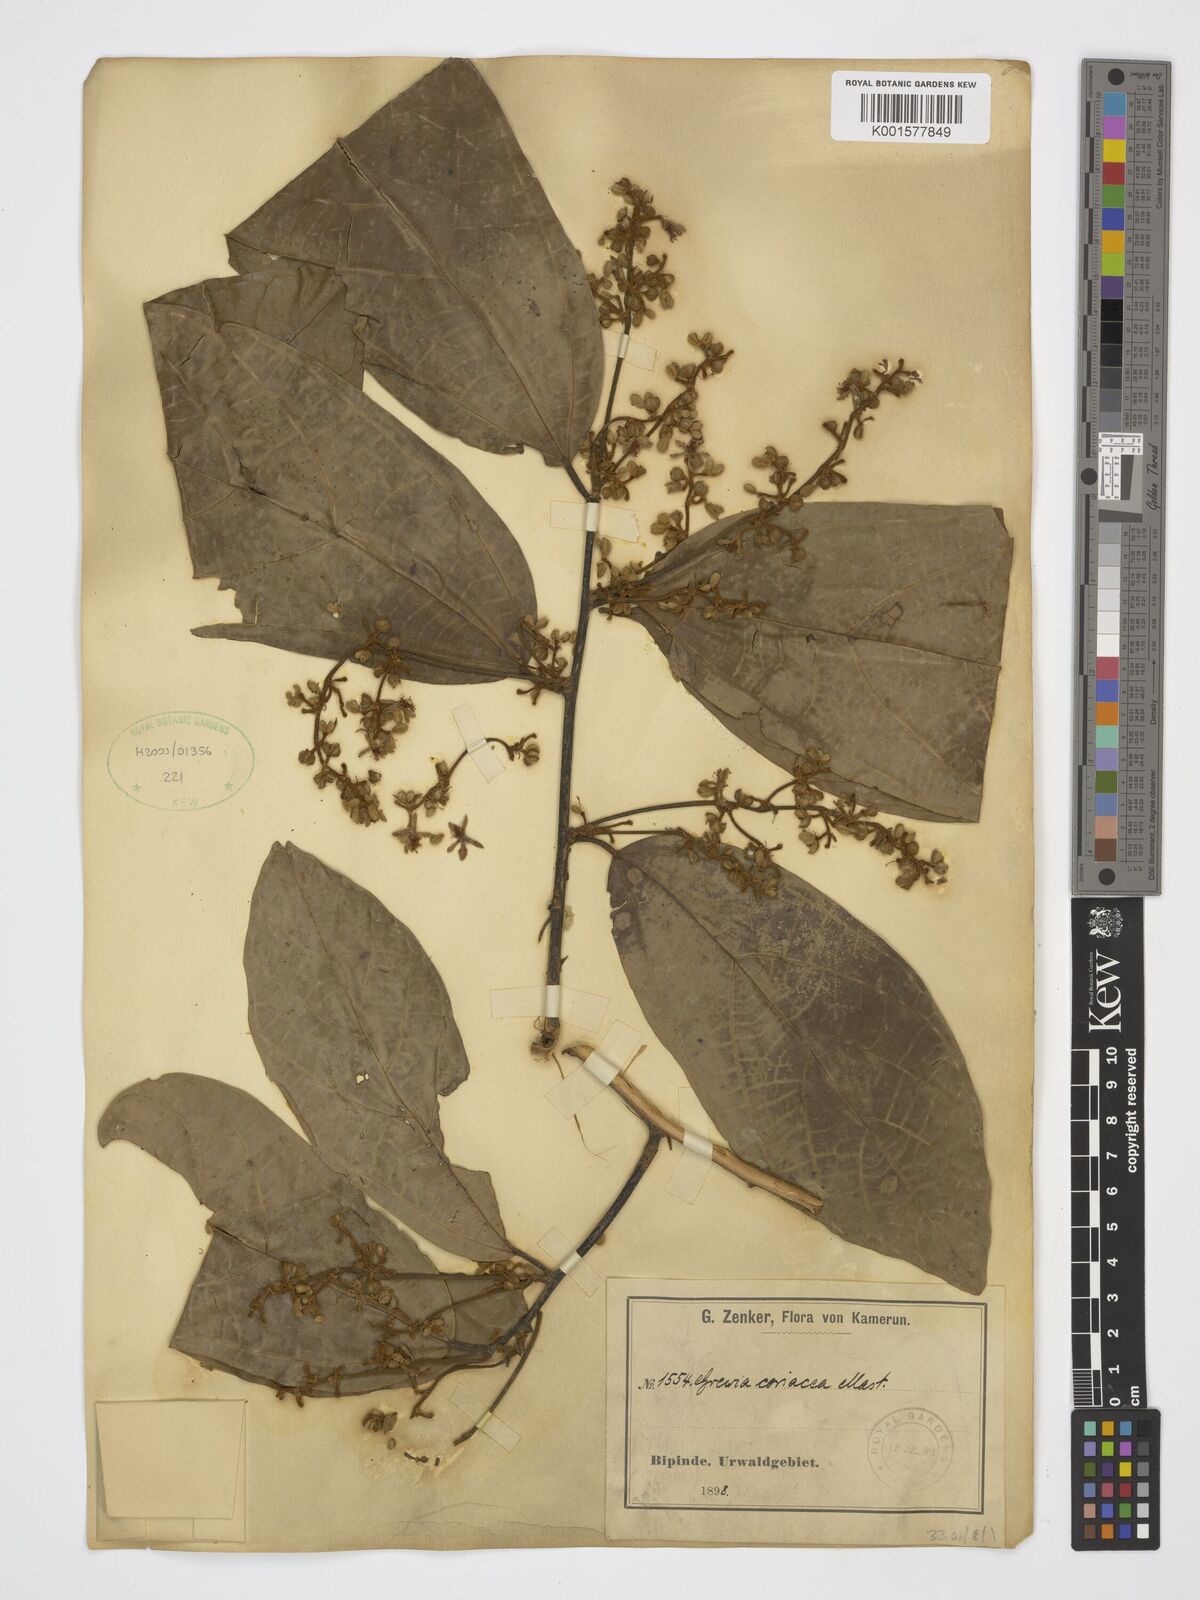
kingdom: Plantae
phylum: Tracheophyta
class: Magnoliopsida
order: Malvales
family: Malvaceae
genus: Microcos
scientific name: Microcos coriacea
